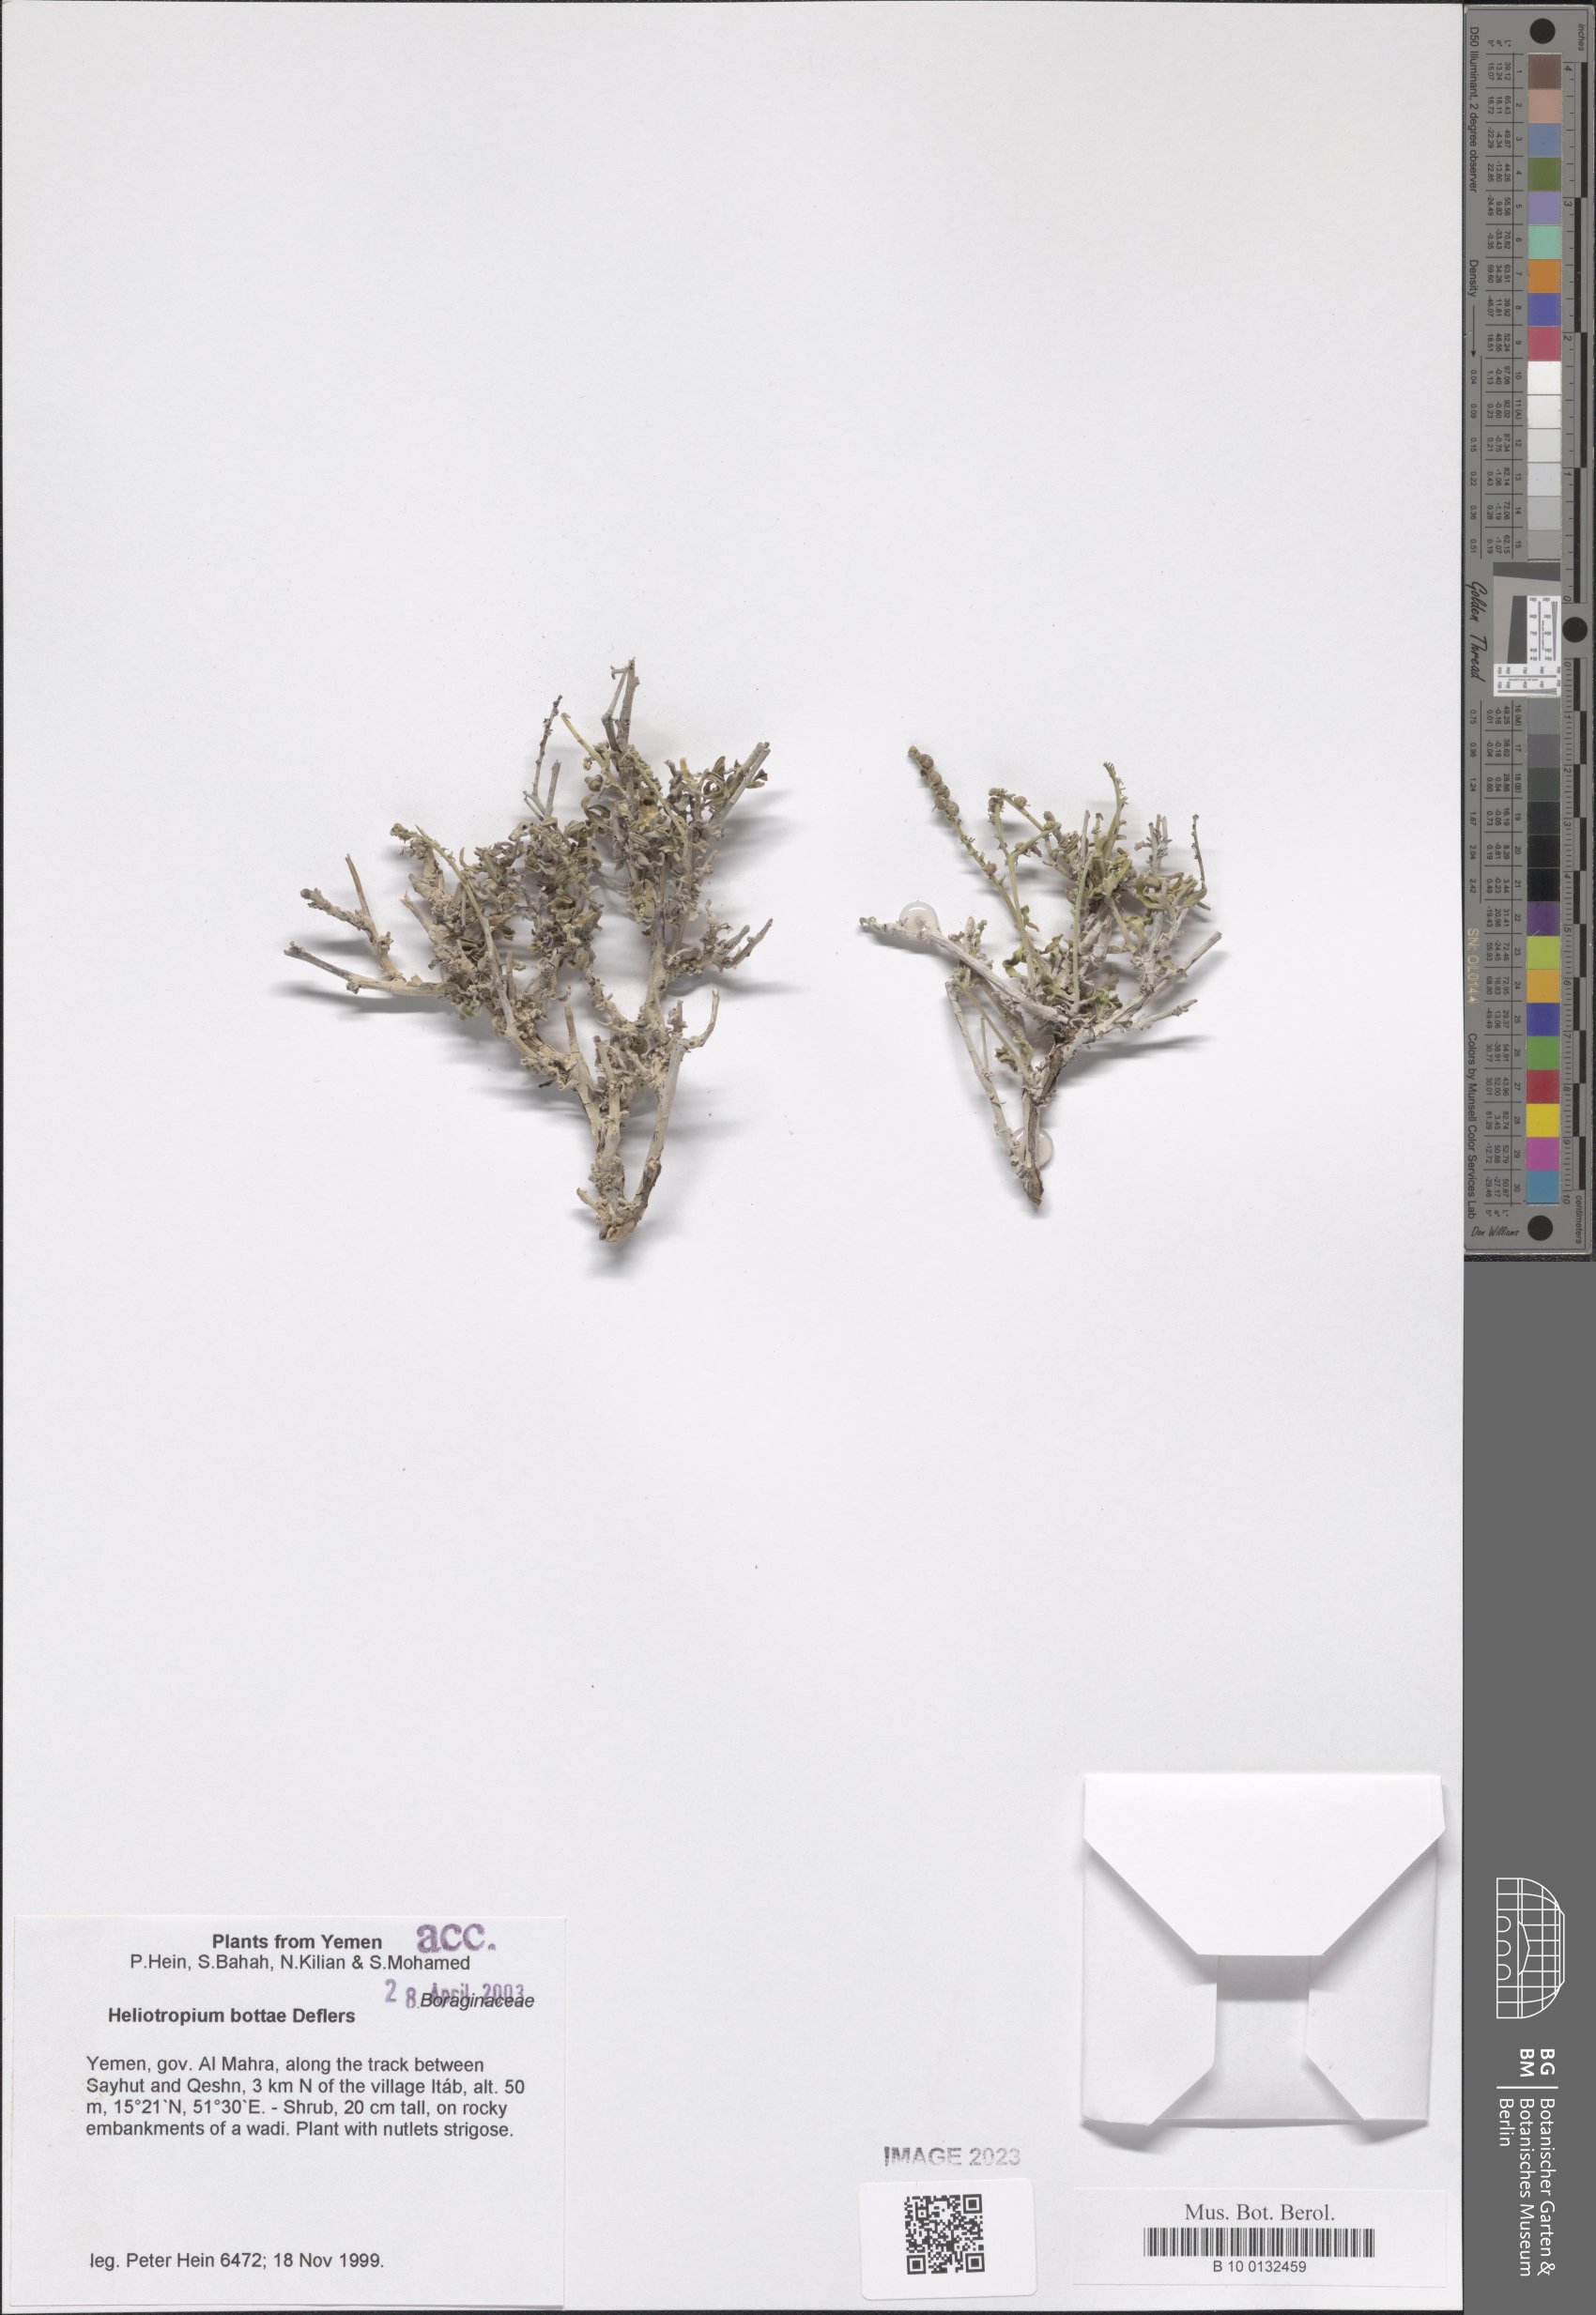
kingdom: Plantae
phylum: Tracheophyta
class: Magnoliopsida
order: Boraginales
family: Heliotropiaceae
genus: Heliotropium
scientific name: Heliotropium steudneri
